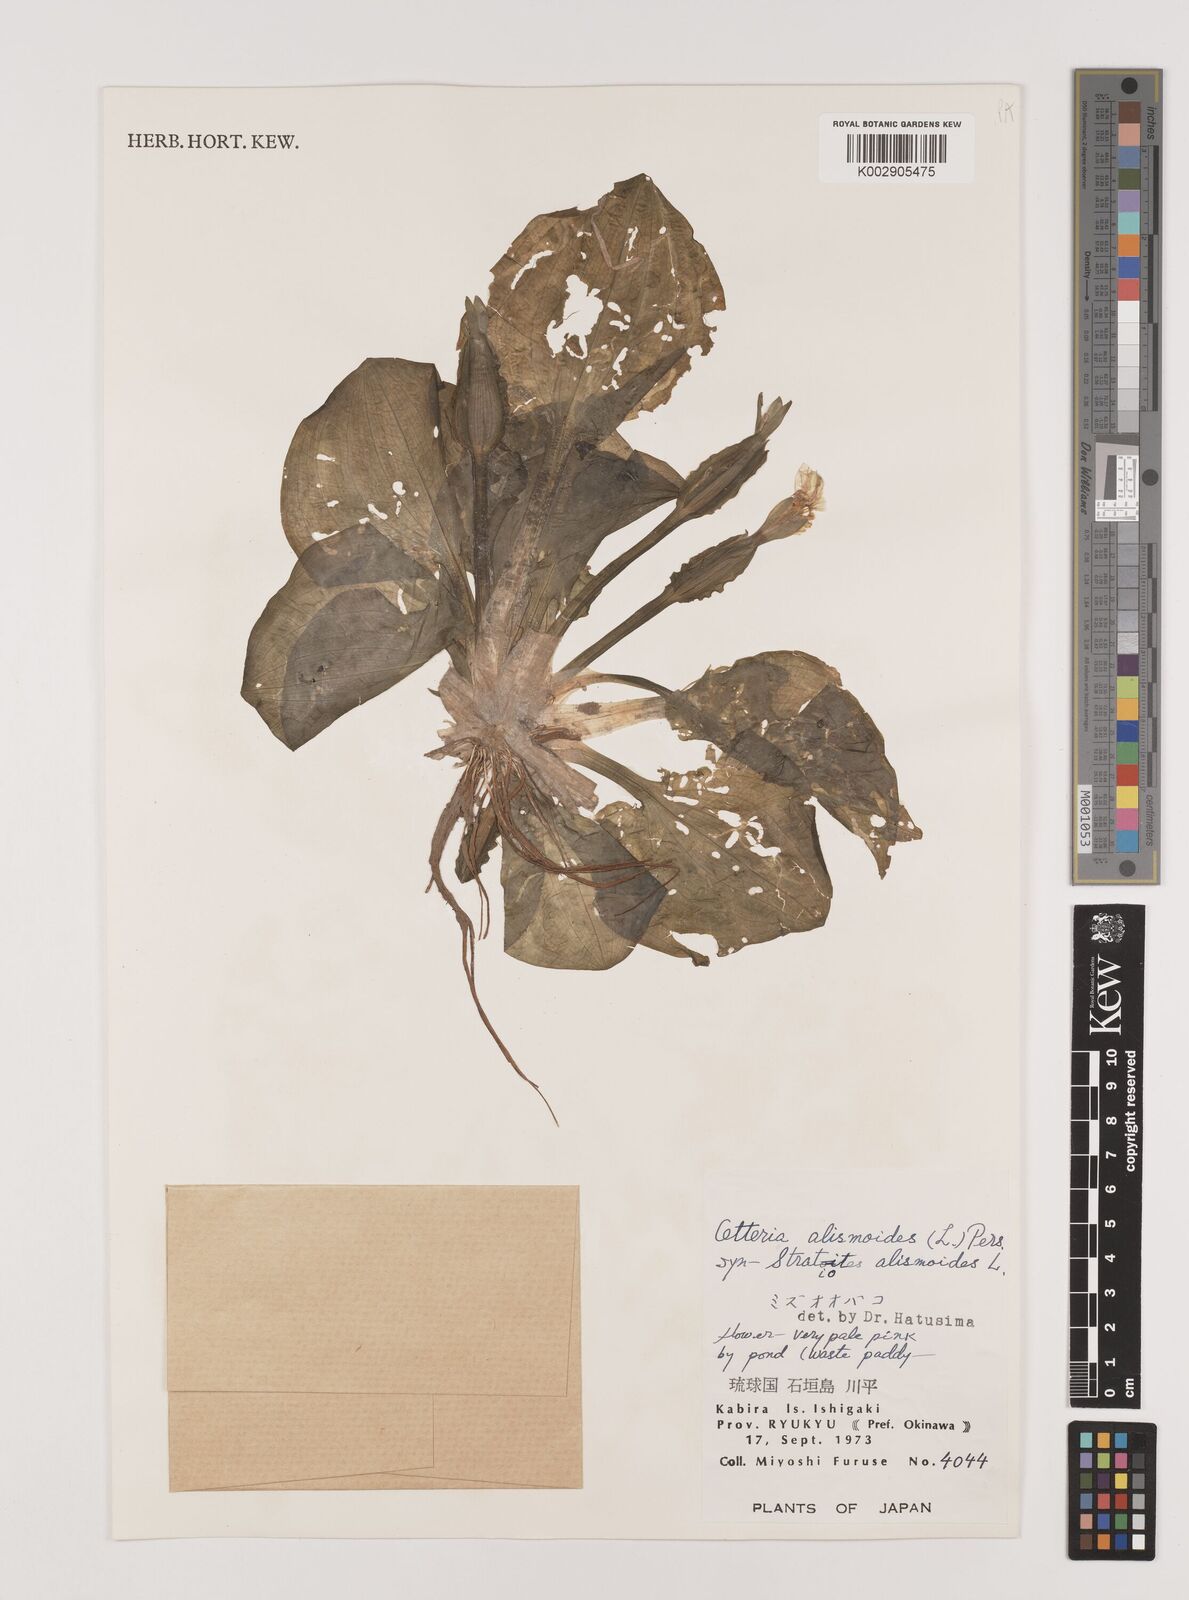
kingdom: Plantae
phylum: Tracheophyta
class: Liliopsida
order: Alismatales
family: Hydrocharitaceae
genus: Ottelia
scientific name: Ottelia alismoides
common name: Duck-lettuce
